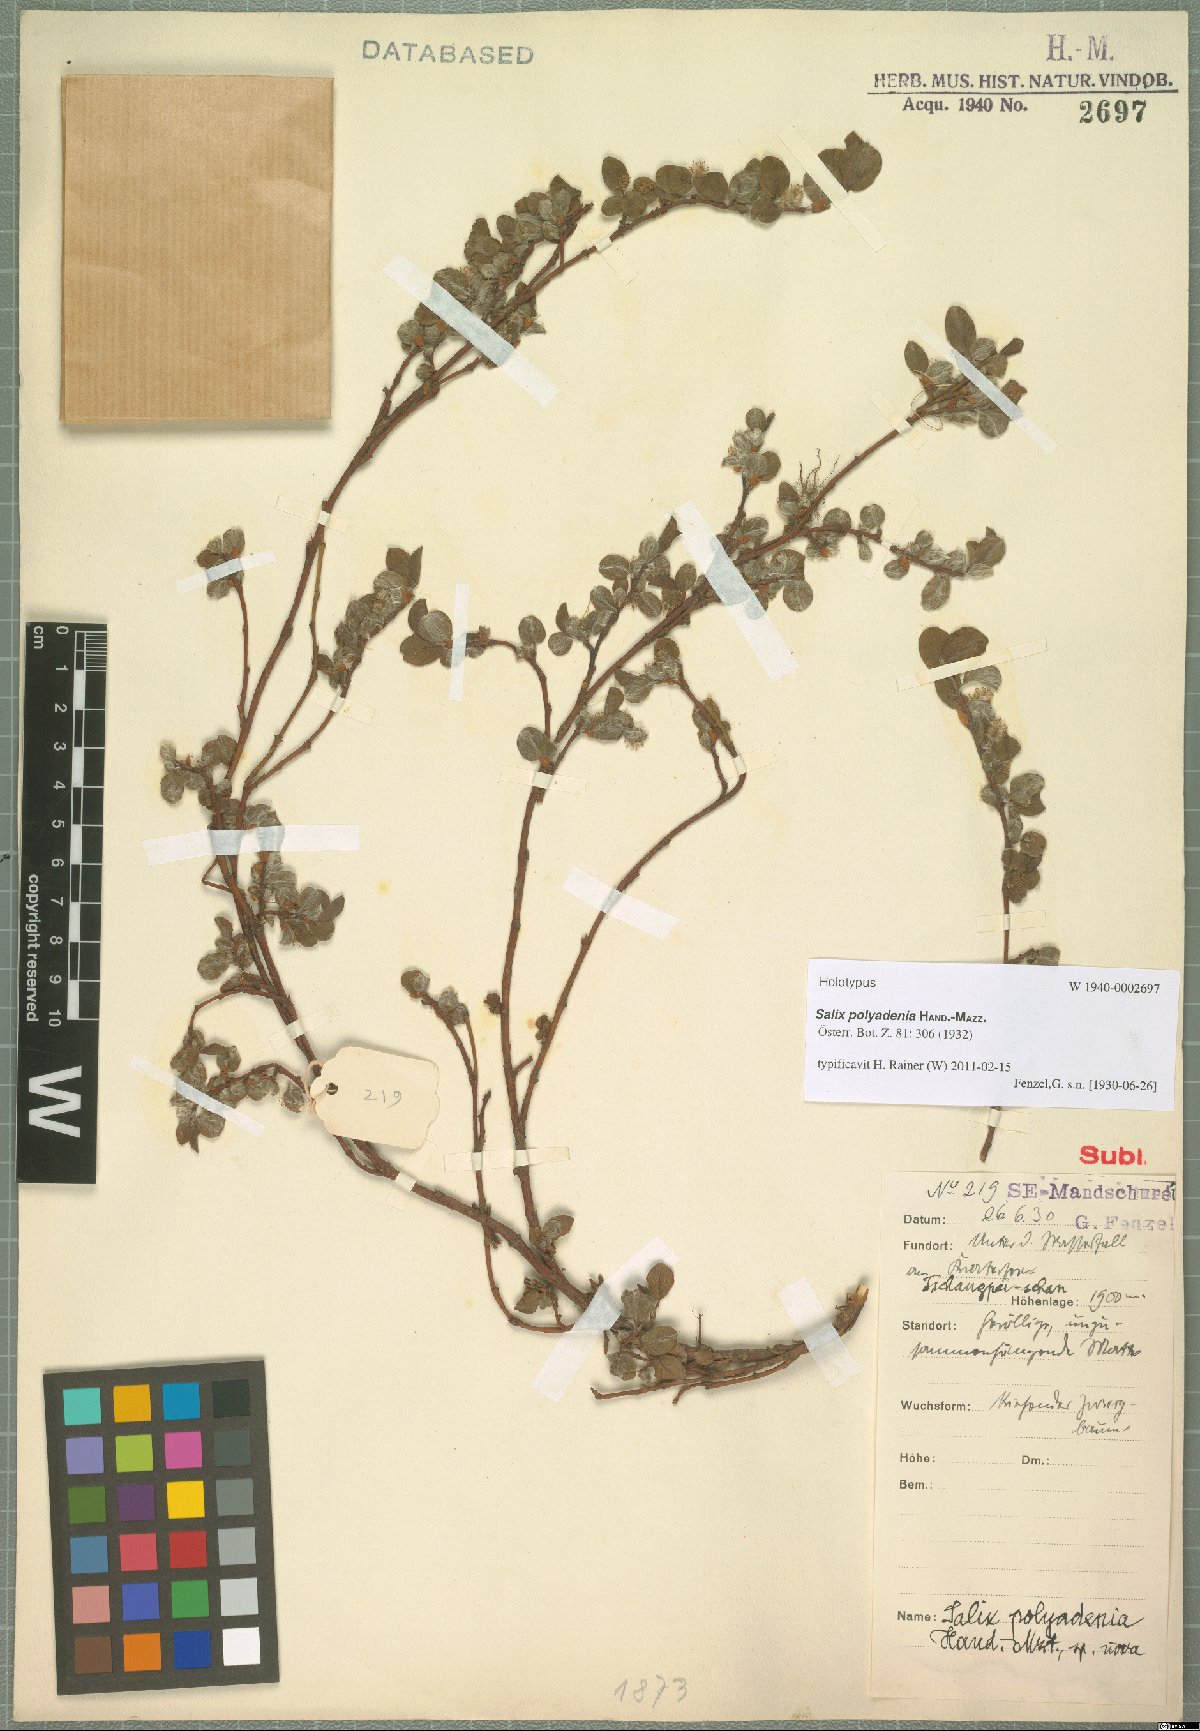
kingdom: Plantae
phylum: Tracheophyta
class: Magnoliopsida
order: Malpighiales
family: Salicaceae
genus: Salix
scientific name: Salix nummularia
